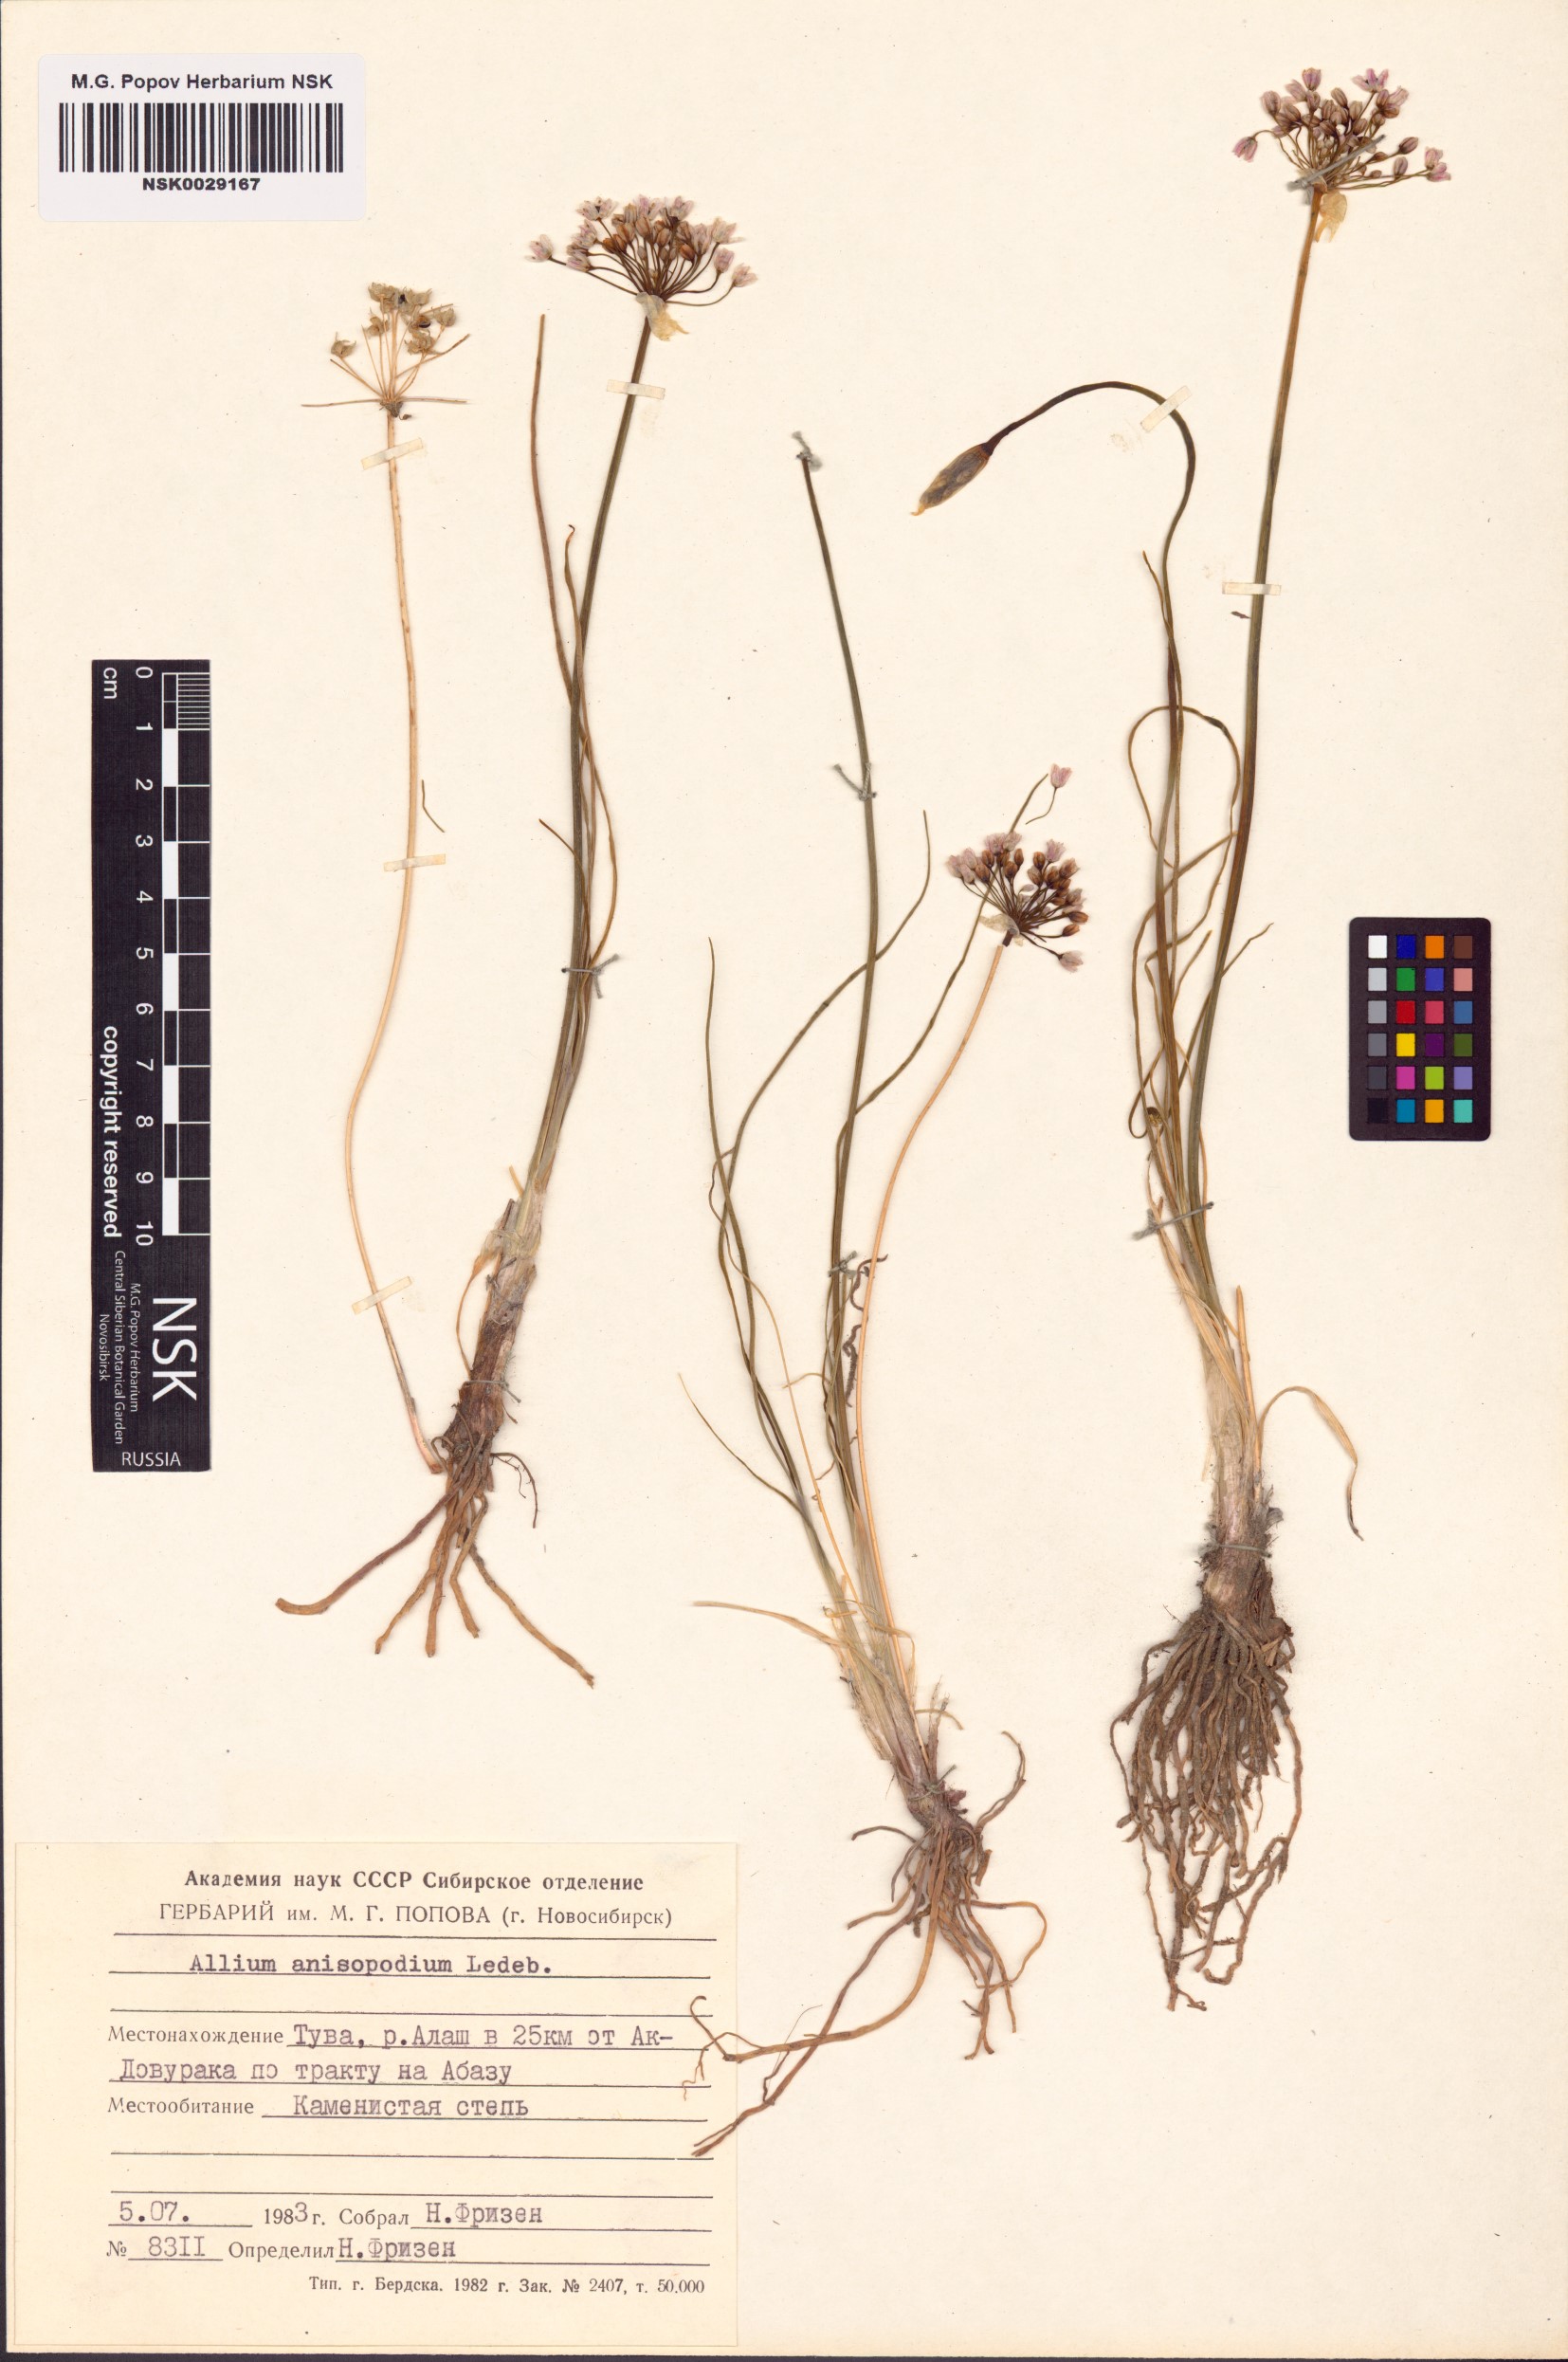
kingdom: Plantae
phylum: Tracheophyta
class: Liliopsida
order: Asparagales
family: Amaryllidaceae
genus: Allium
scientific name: Allium anisopodium
